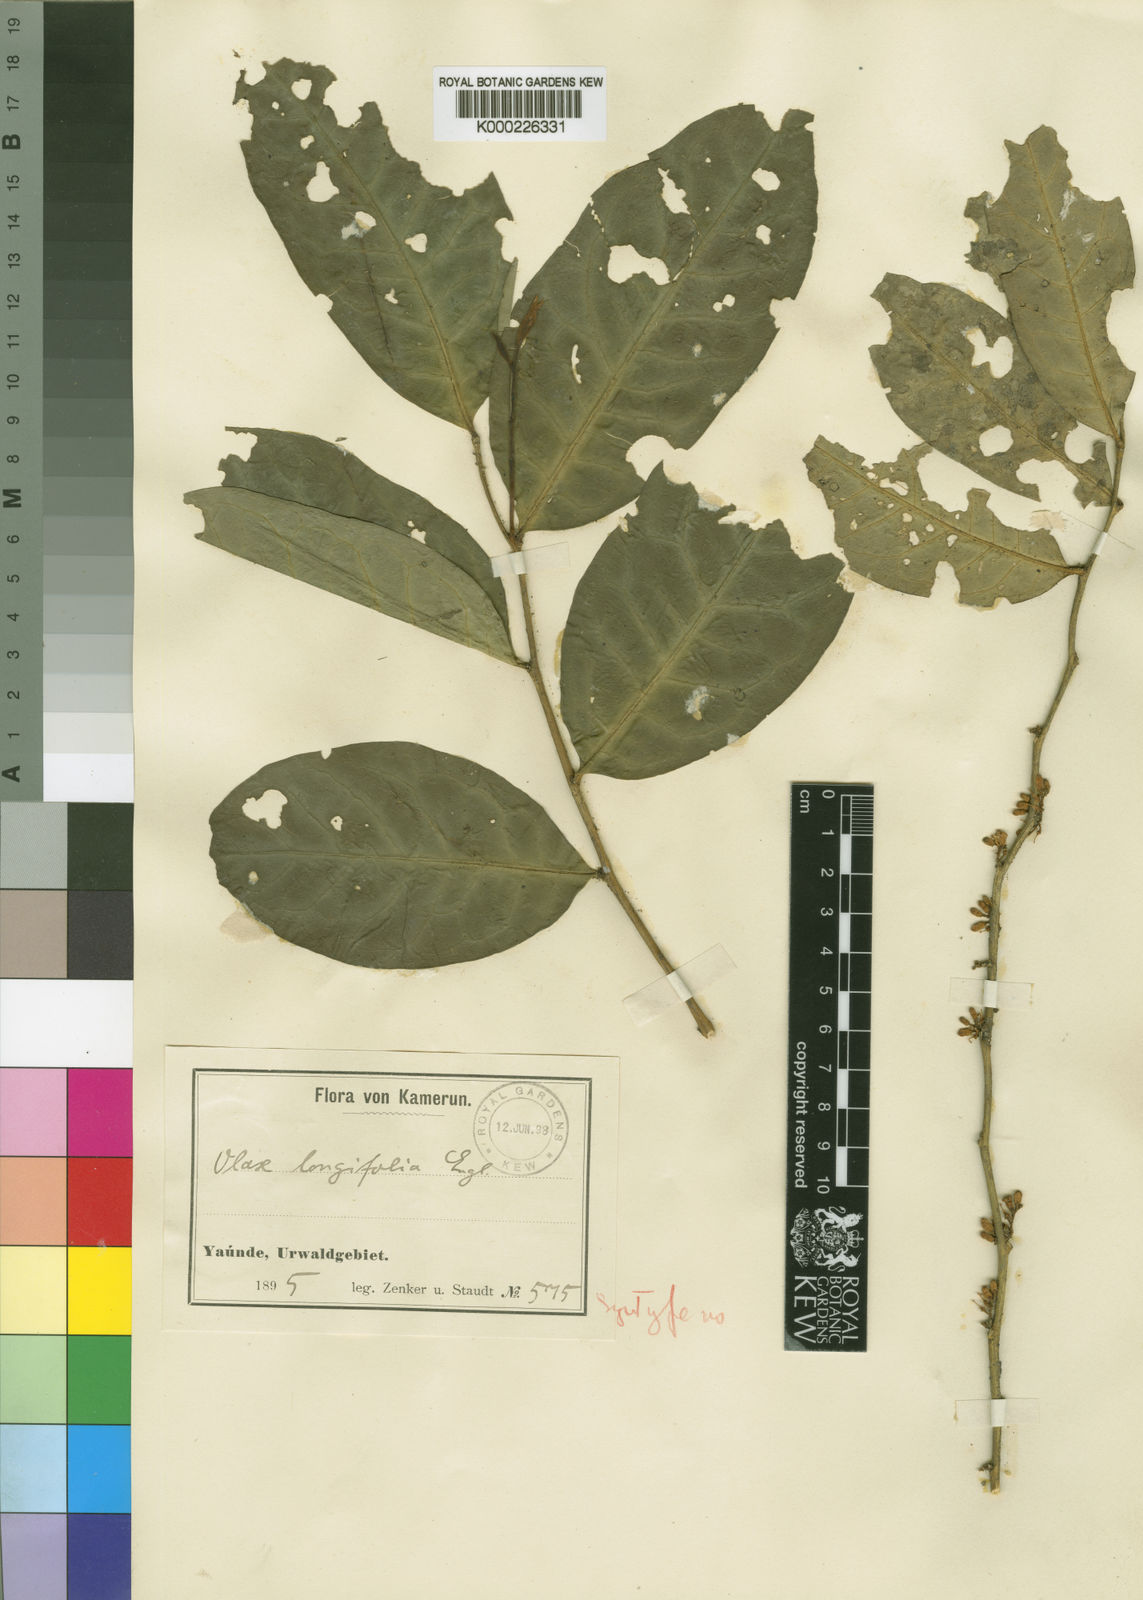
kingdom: Plantae
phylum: Tracheophyta
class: Magnoliopsida
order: Santalales
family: Olacaceae
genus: Olax
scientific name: Olax mannii
